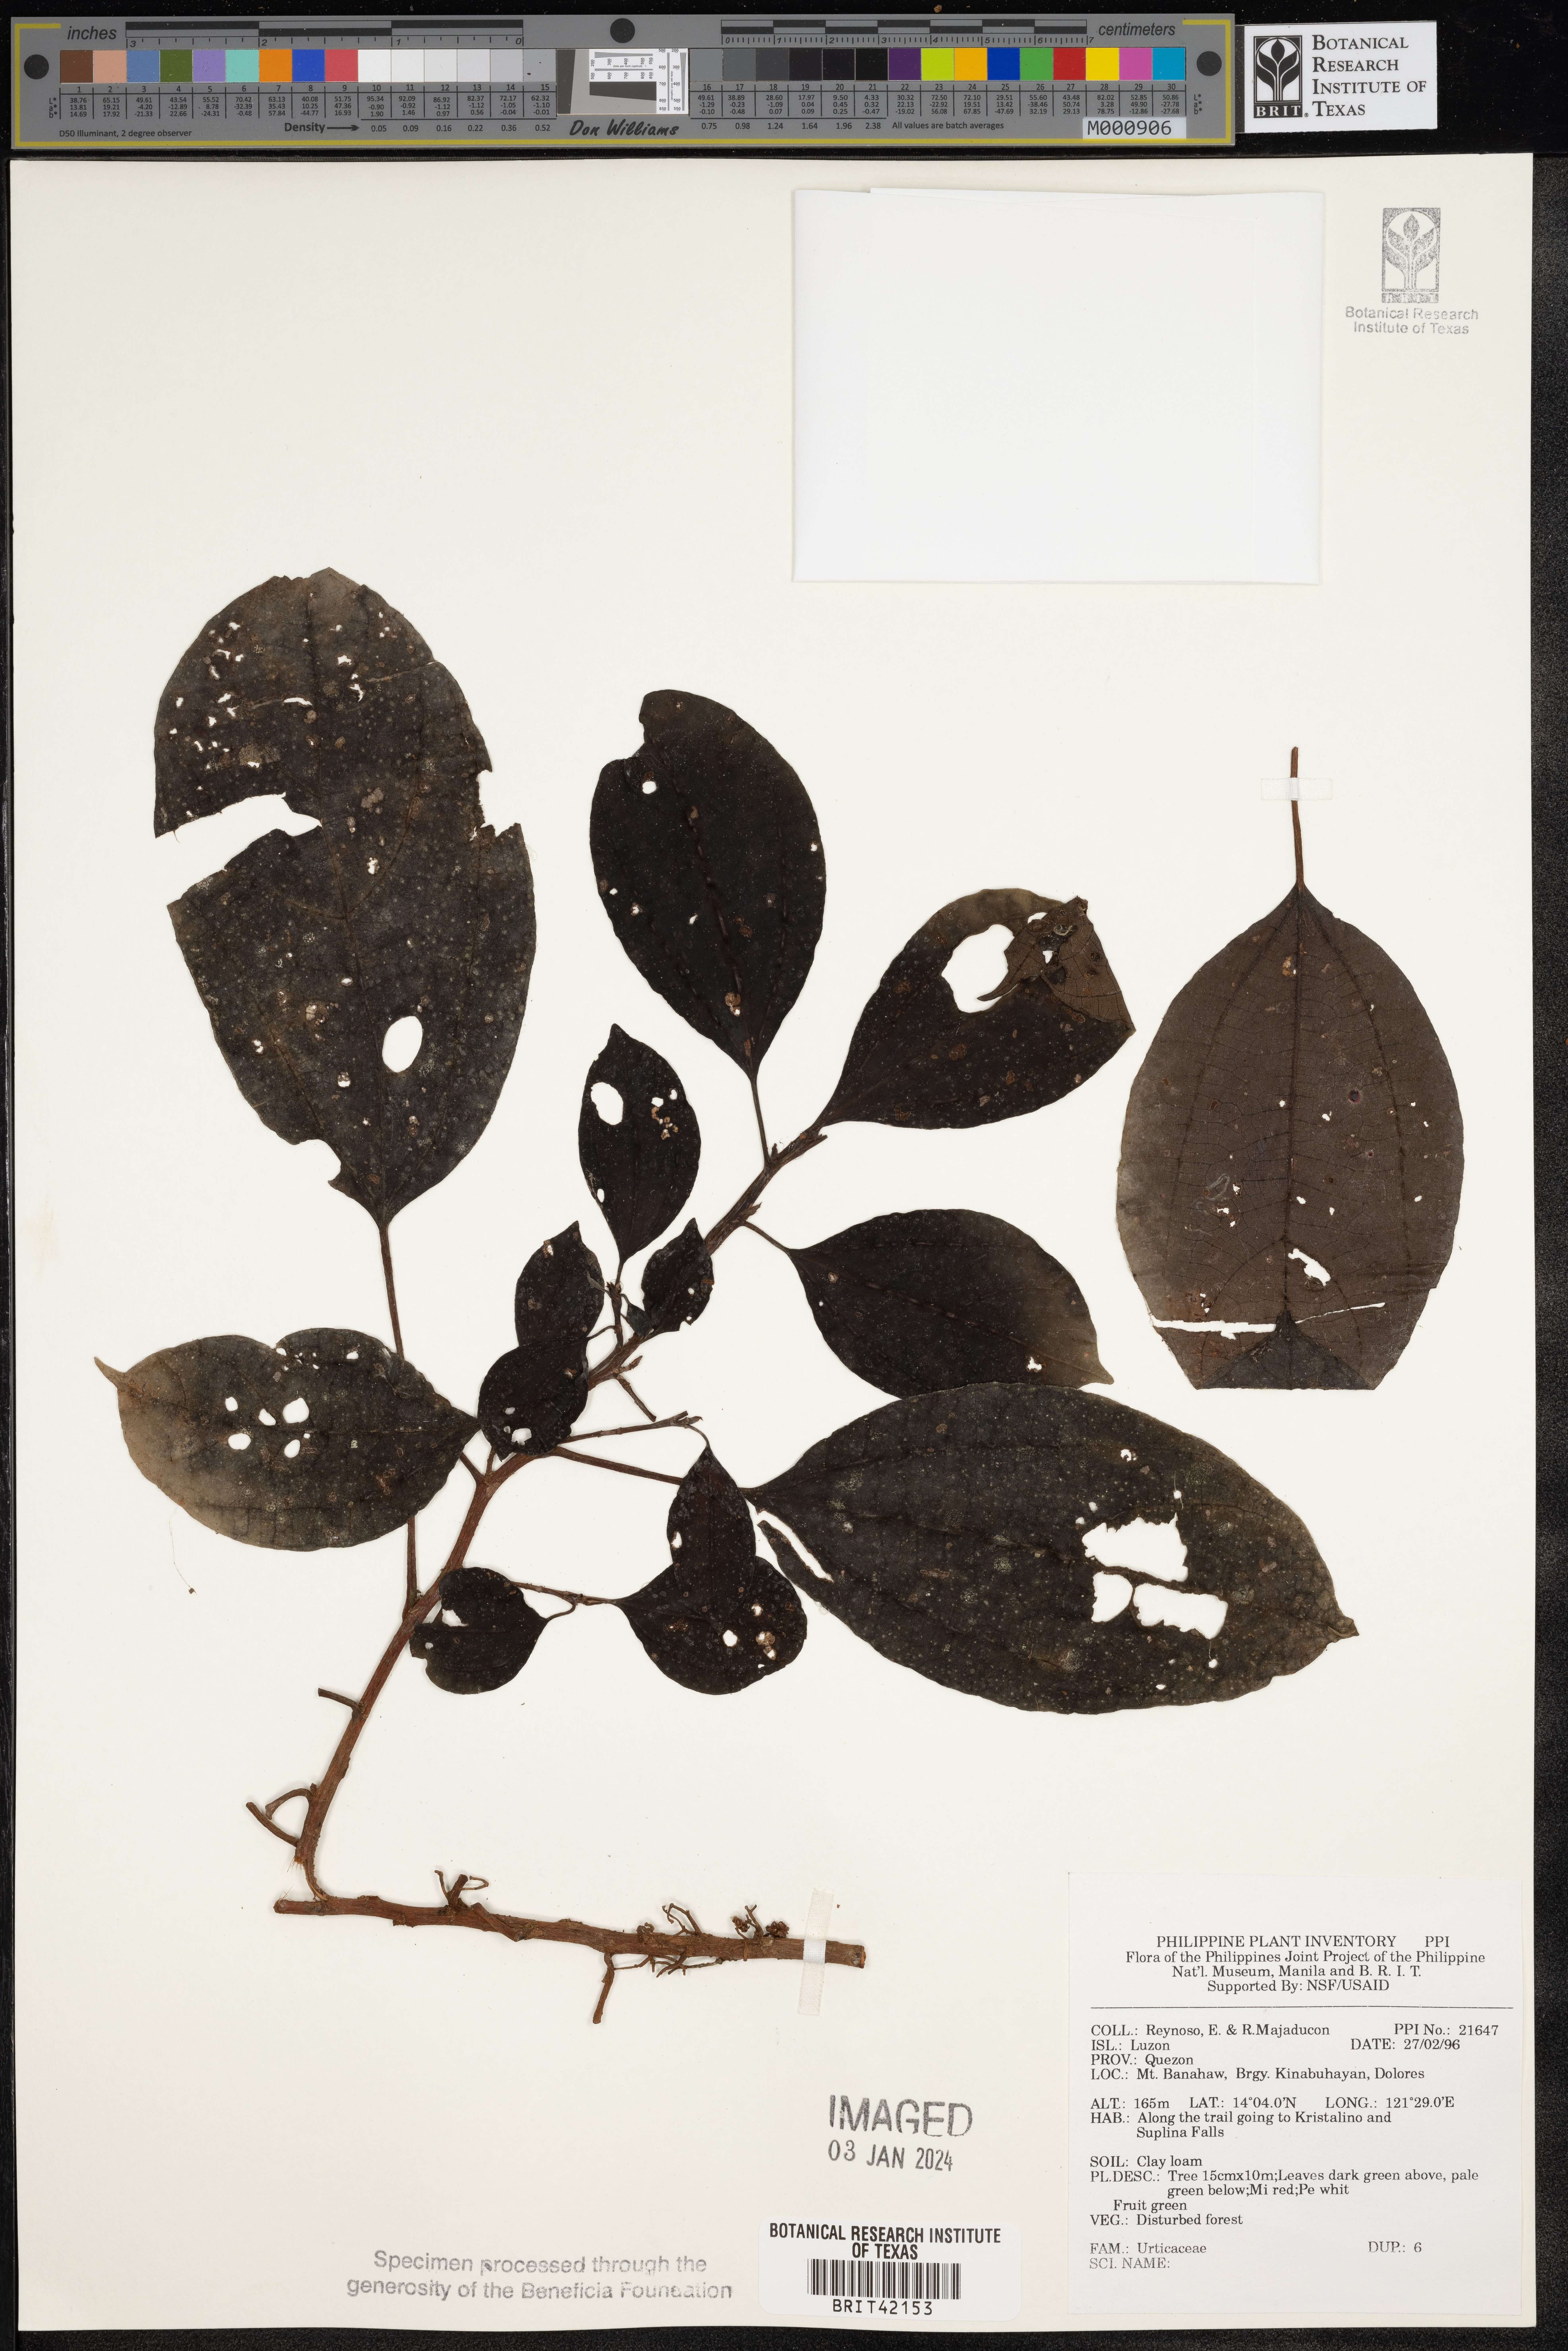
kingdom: Plantae
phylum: Tracheophyta
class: Magnoliopsida
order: Rosales
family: Urticaceae
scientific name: Urticaceae
